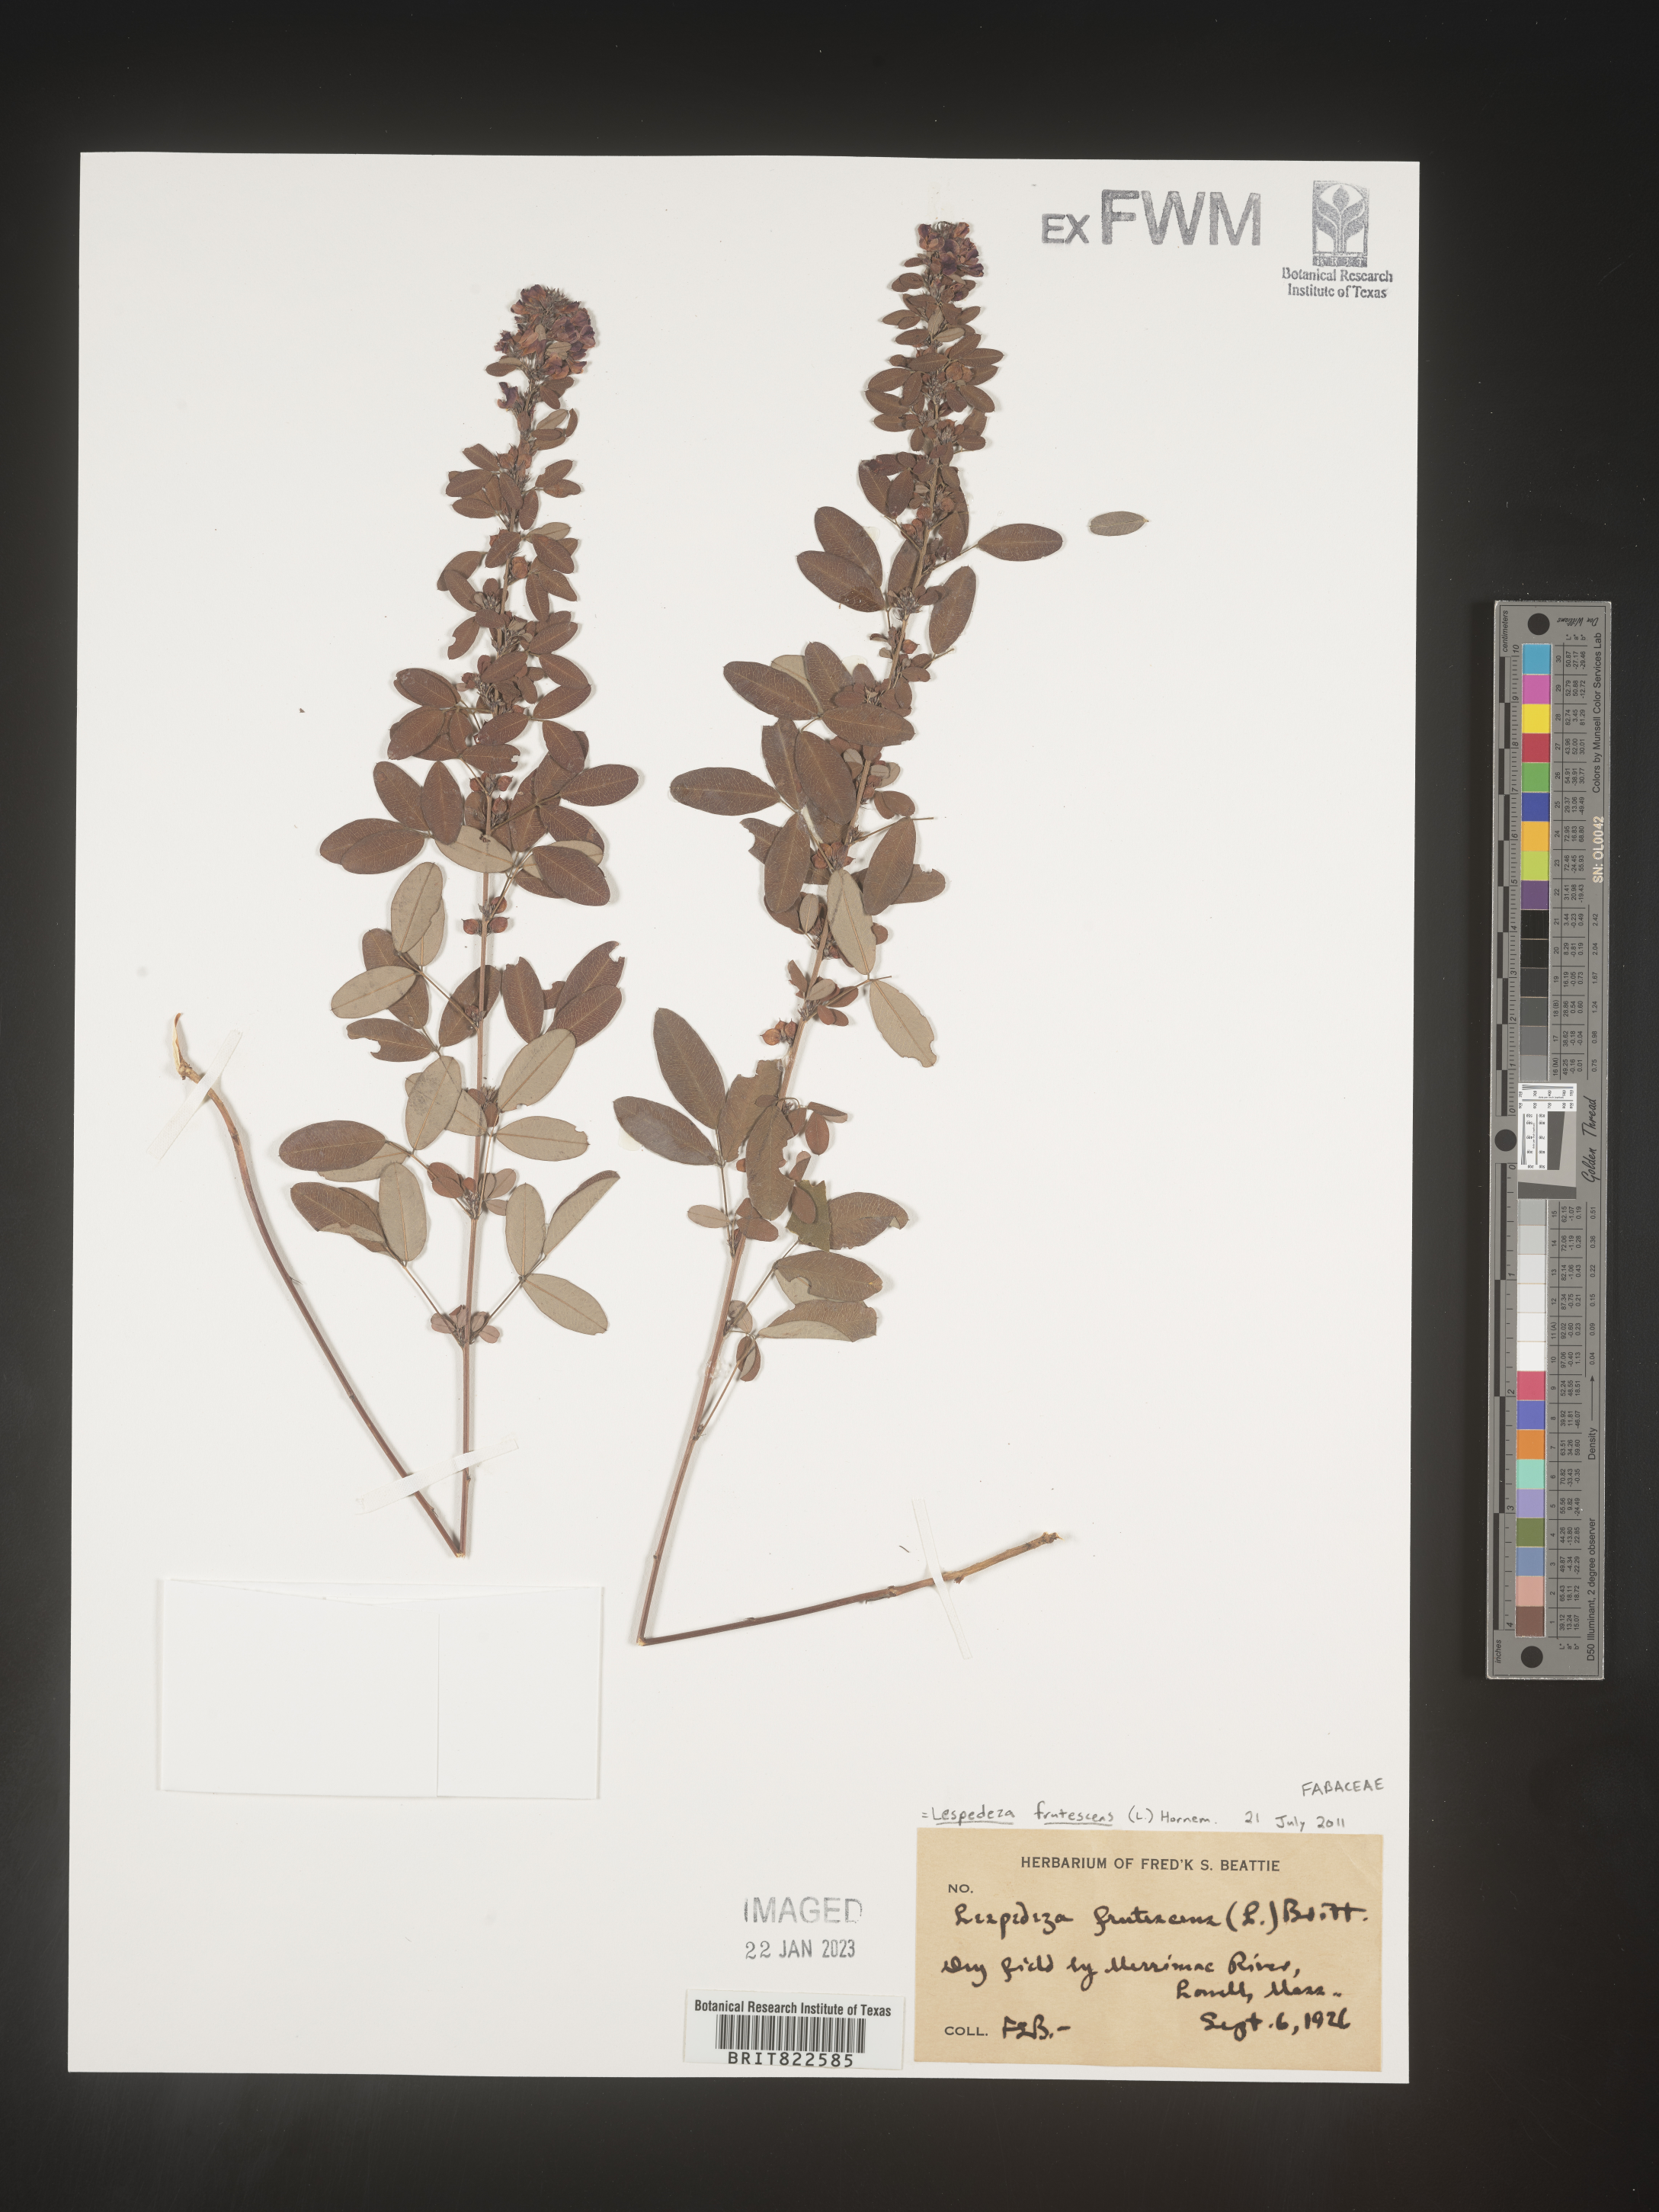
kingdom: Plantae
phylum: Tracheophyta
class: Magnoliopsida
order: Fabales
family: Fabaceae
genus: Lespedeza
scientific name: Lespedeza violacea
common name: Wand bush-clover
